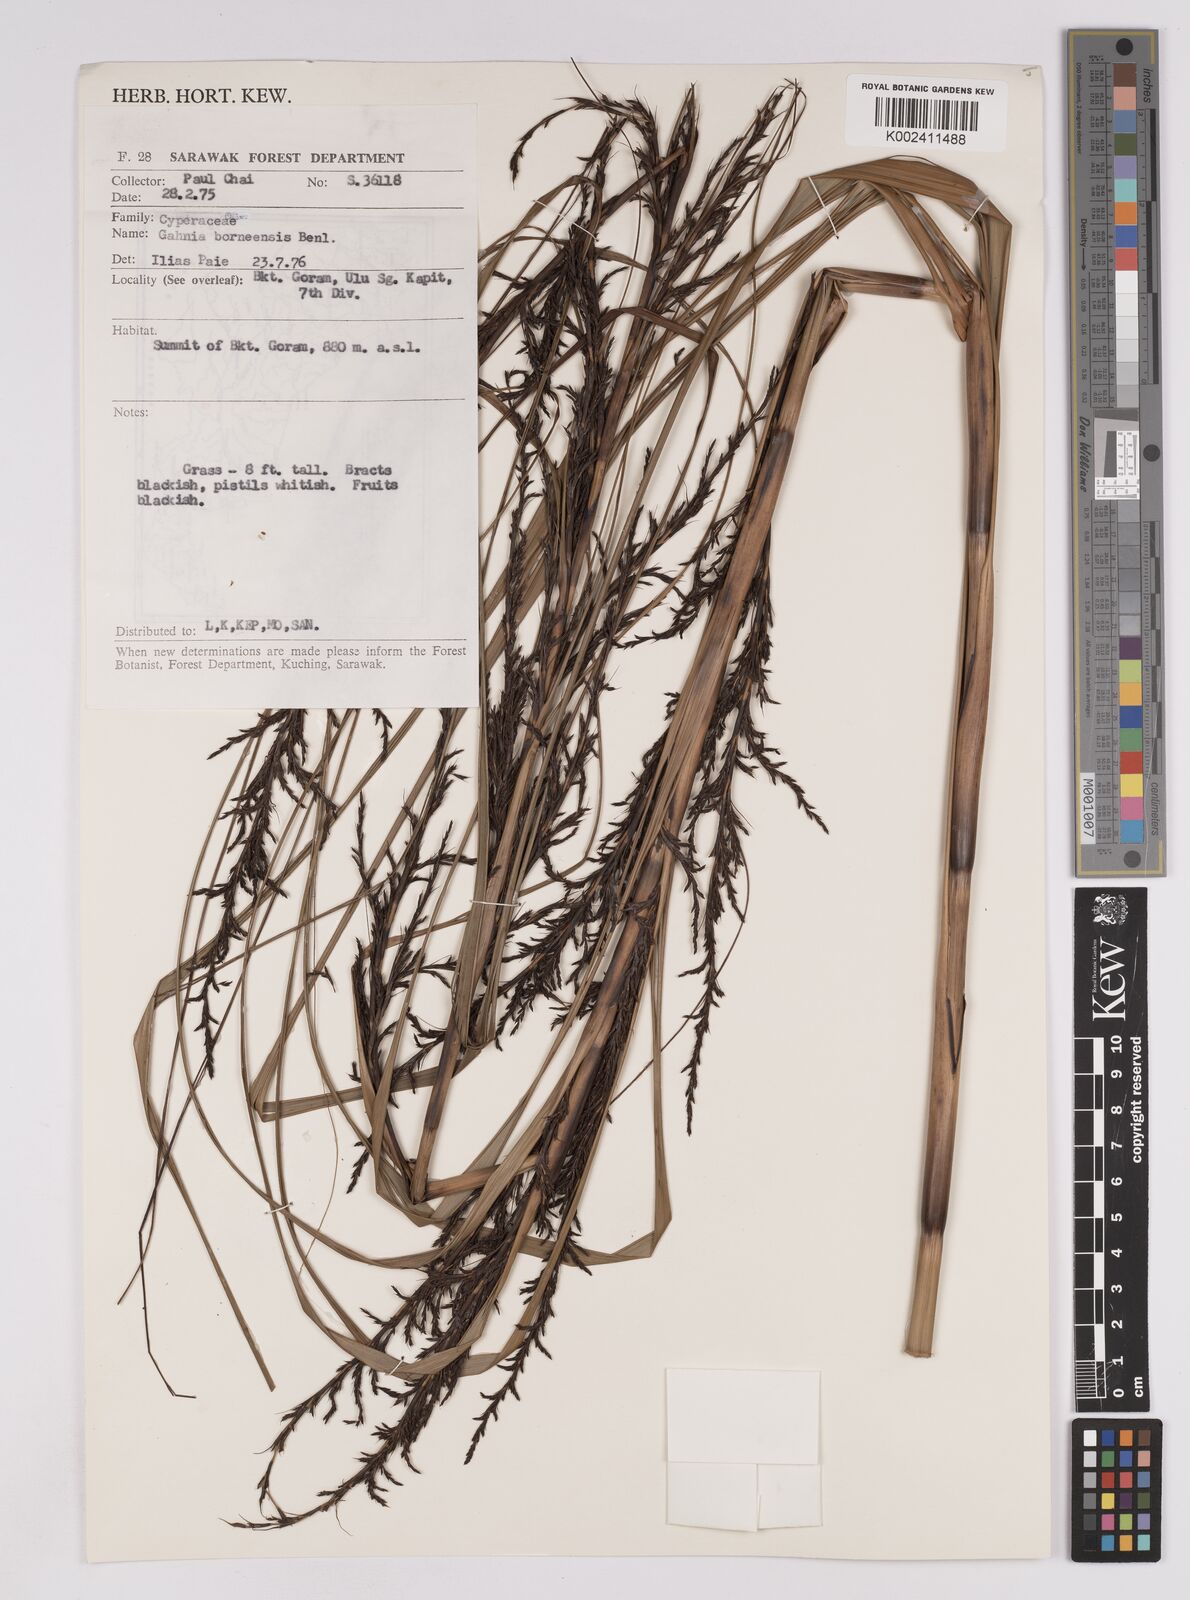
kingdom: Plantae
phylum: Tracheophyta
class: Liliopsida
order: Poales
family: Cyperaceae
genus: Gahnia
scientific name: Gahnia javanica
